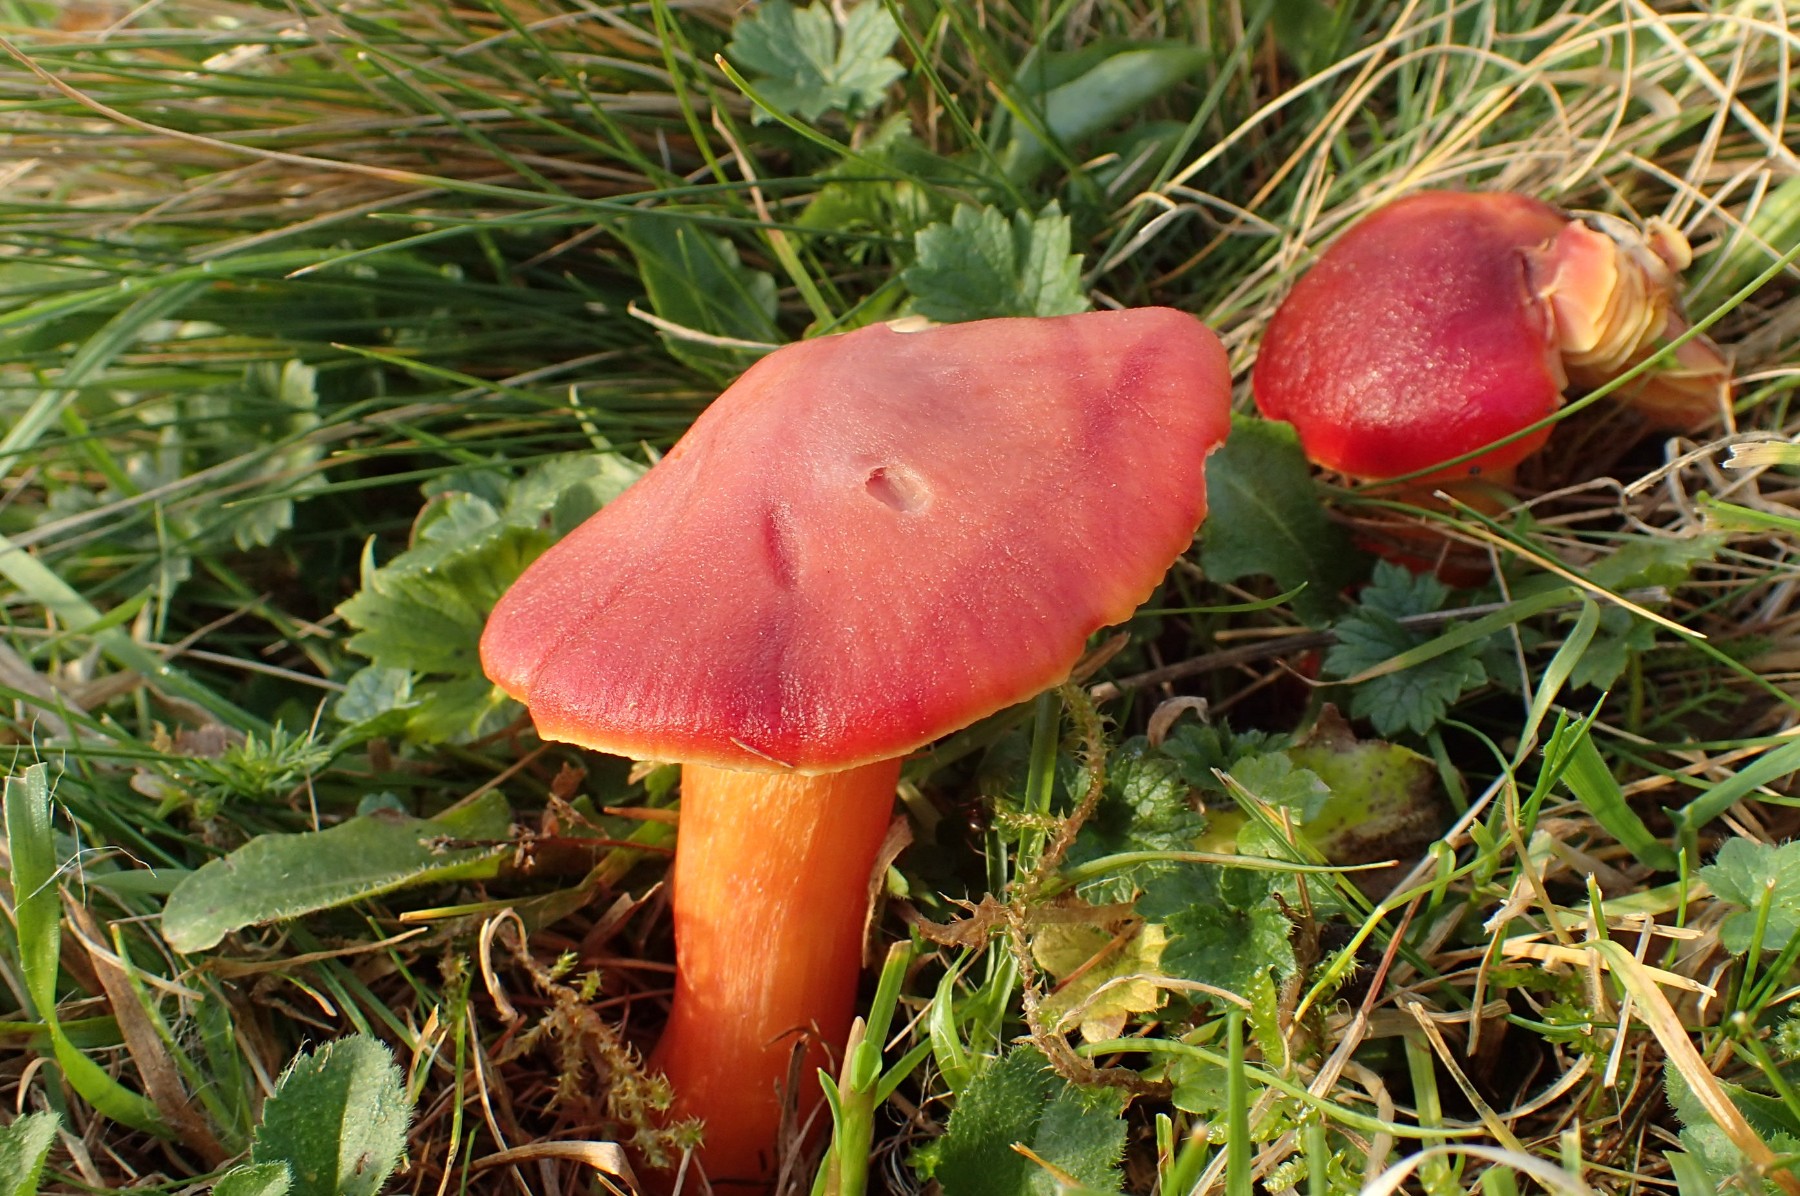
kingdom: Fungi
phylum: Basidiomycota
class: Agaricomycetes
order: Agaricales
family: Hygrophoraceae
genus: Hygrocybe
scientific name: Hygrocybe punicea
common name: skarlagen-vokshat
